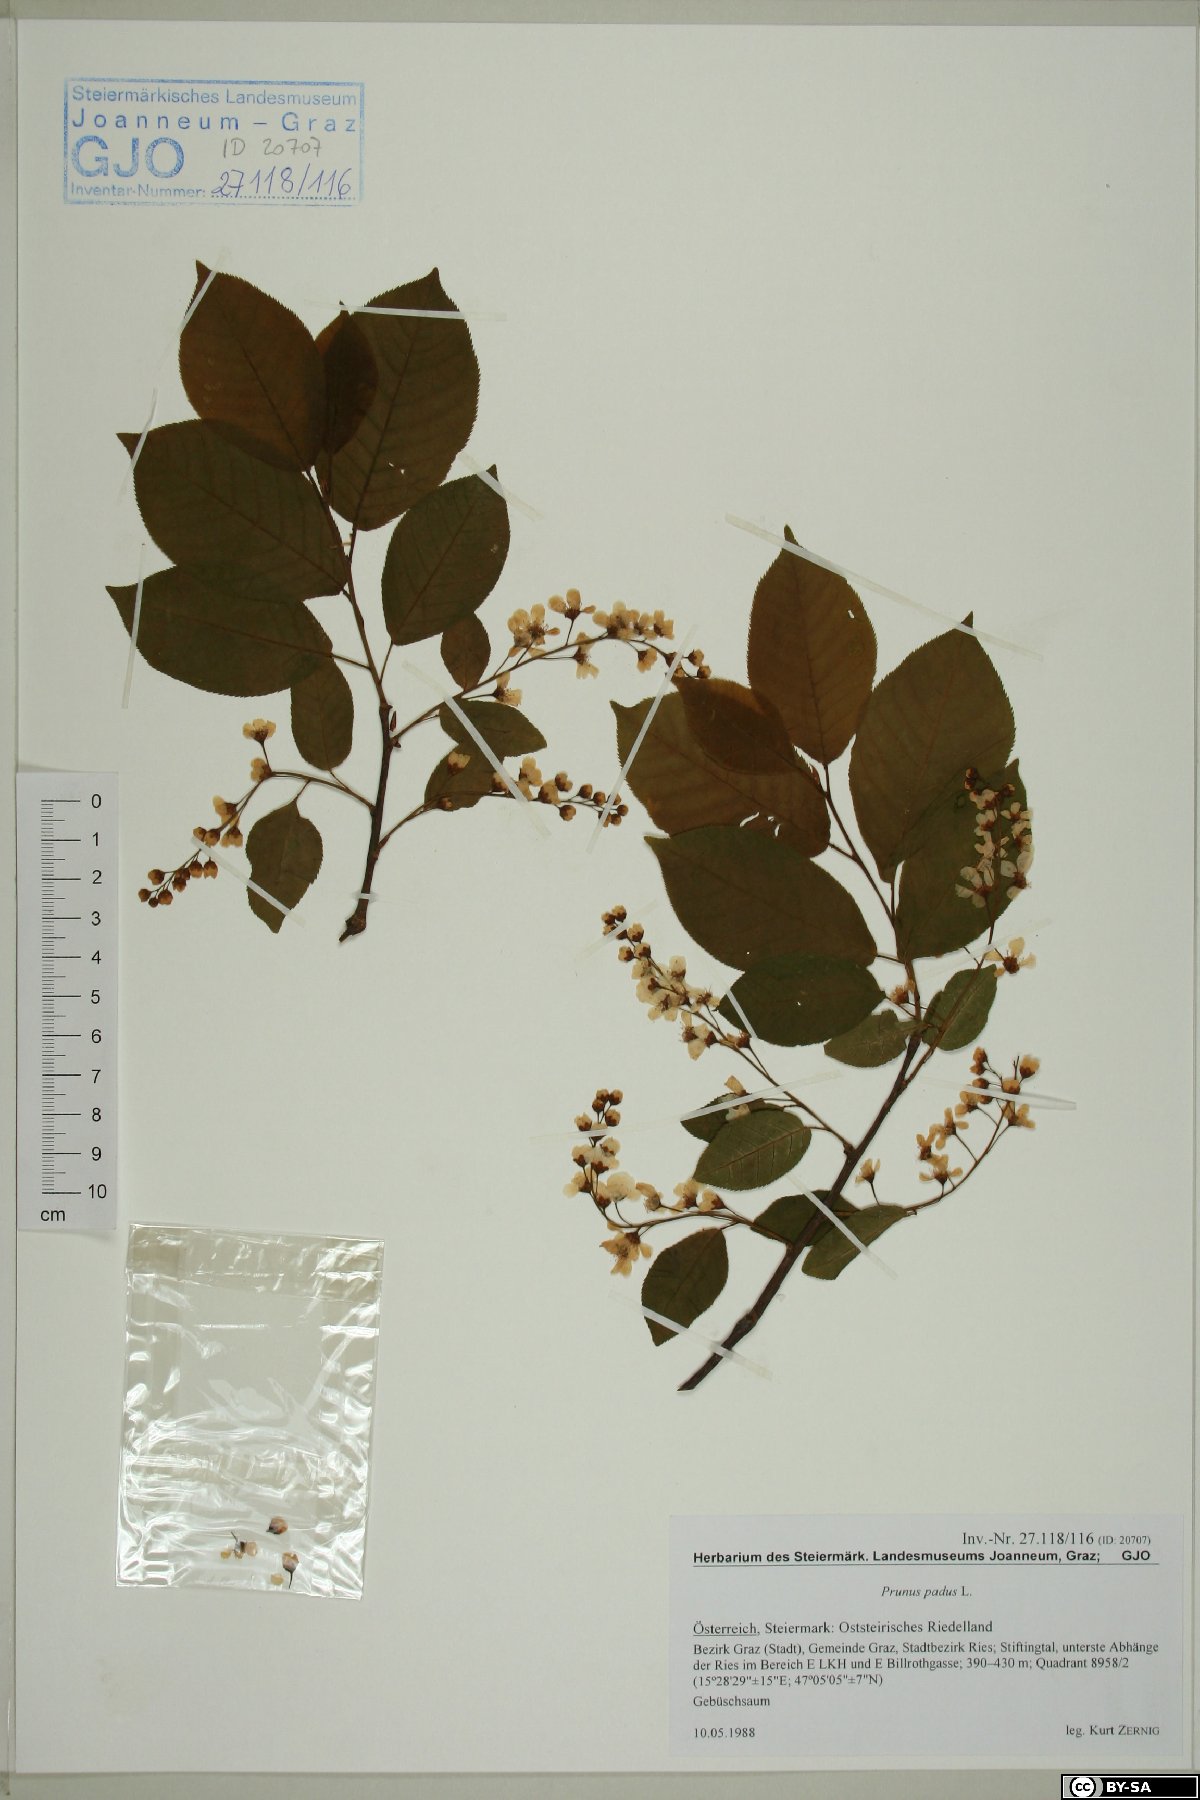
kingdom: Plantae
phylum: Tracheophyta
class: Magnoliopsida
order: Rosales
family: Rosaceae
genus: Prunus
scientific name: Prunus padus
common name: Bird cherry
